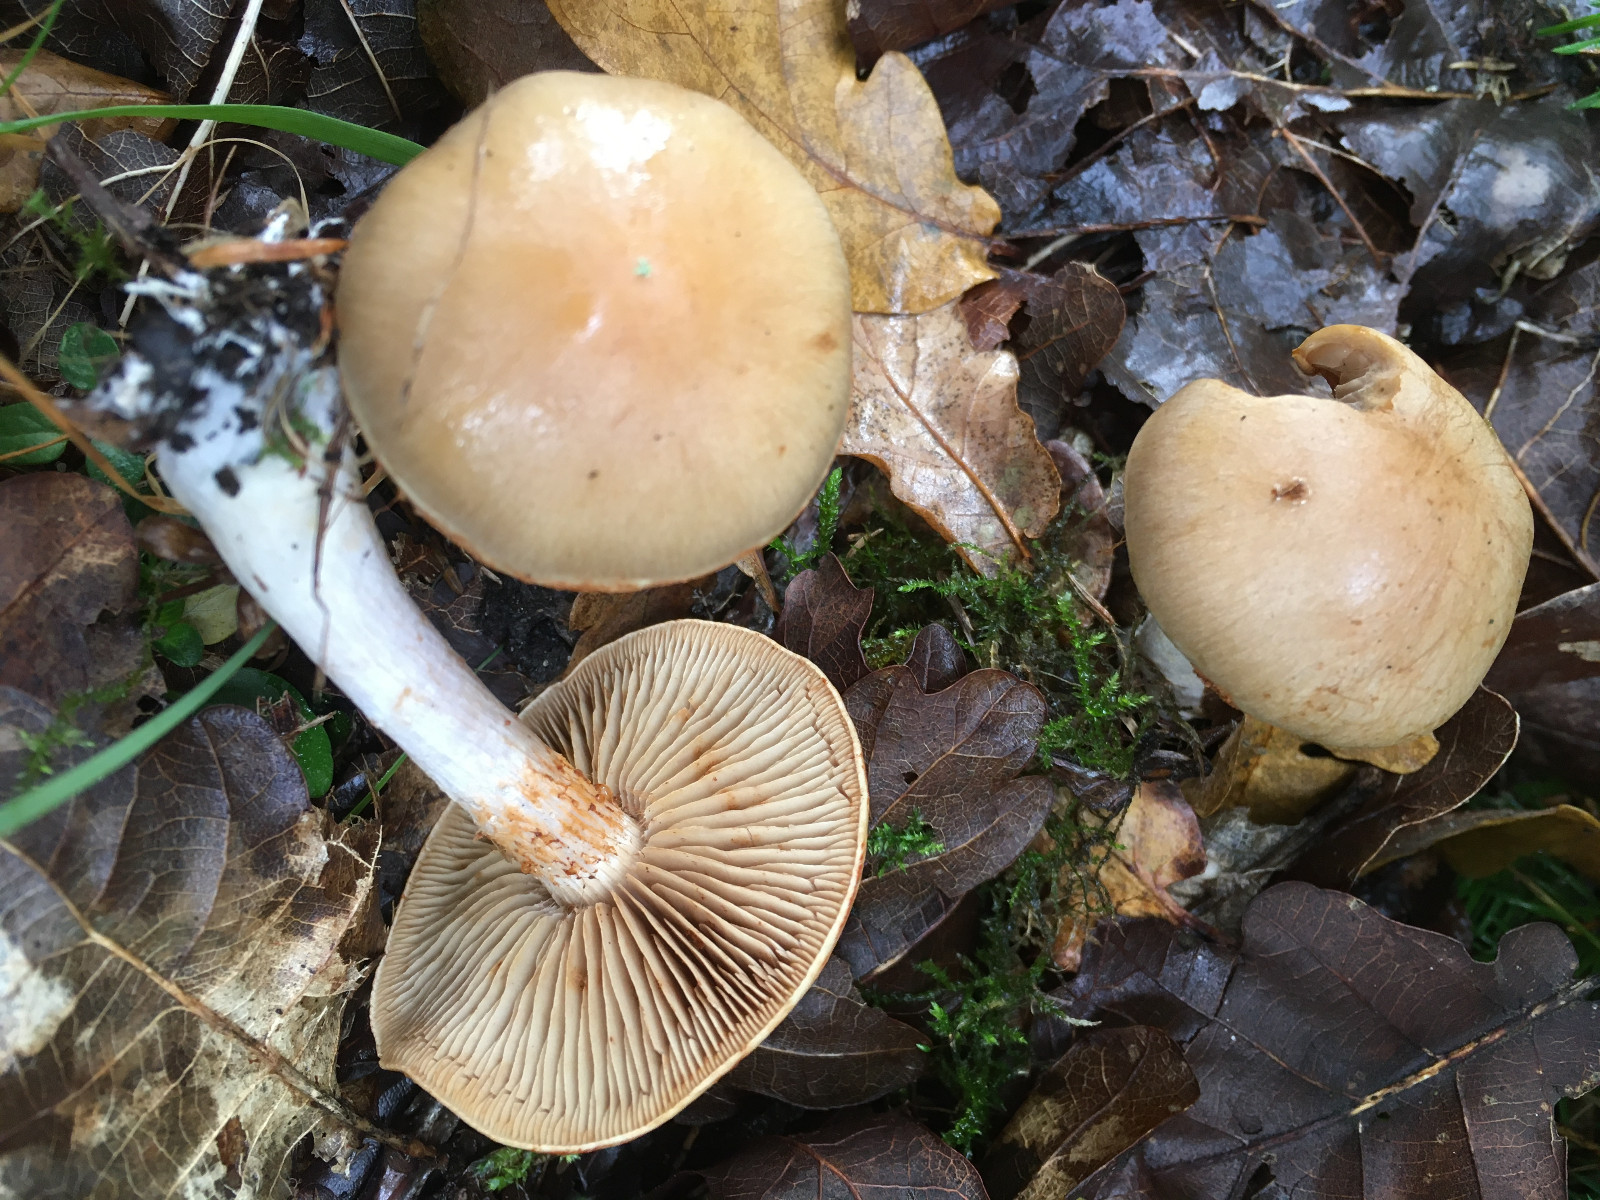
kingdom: Fungi
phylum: Basidiomycota
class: Agaricomycetes
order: Agaricales
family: Cortinariaceae
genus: Cortinarius
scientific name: Cortinarius tabularis
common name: lerbrun slørhat
